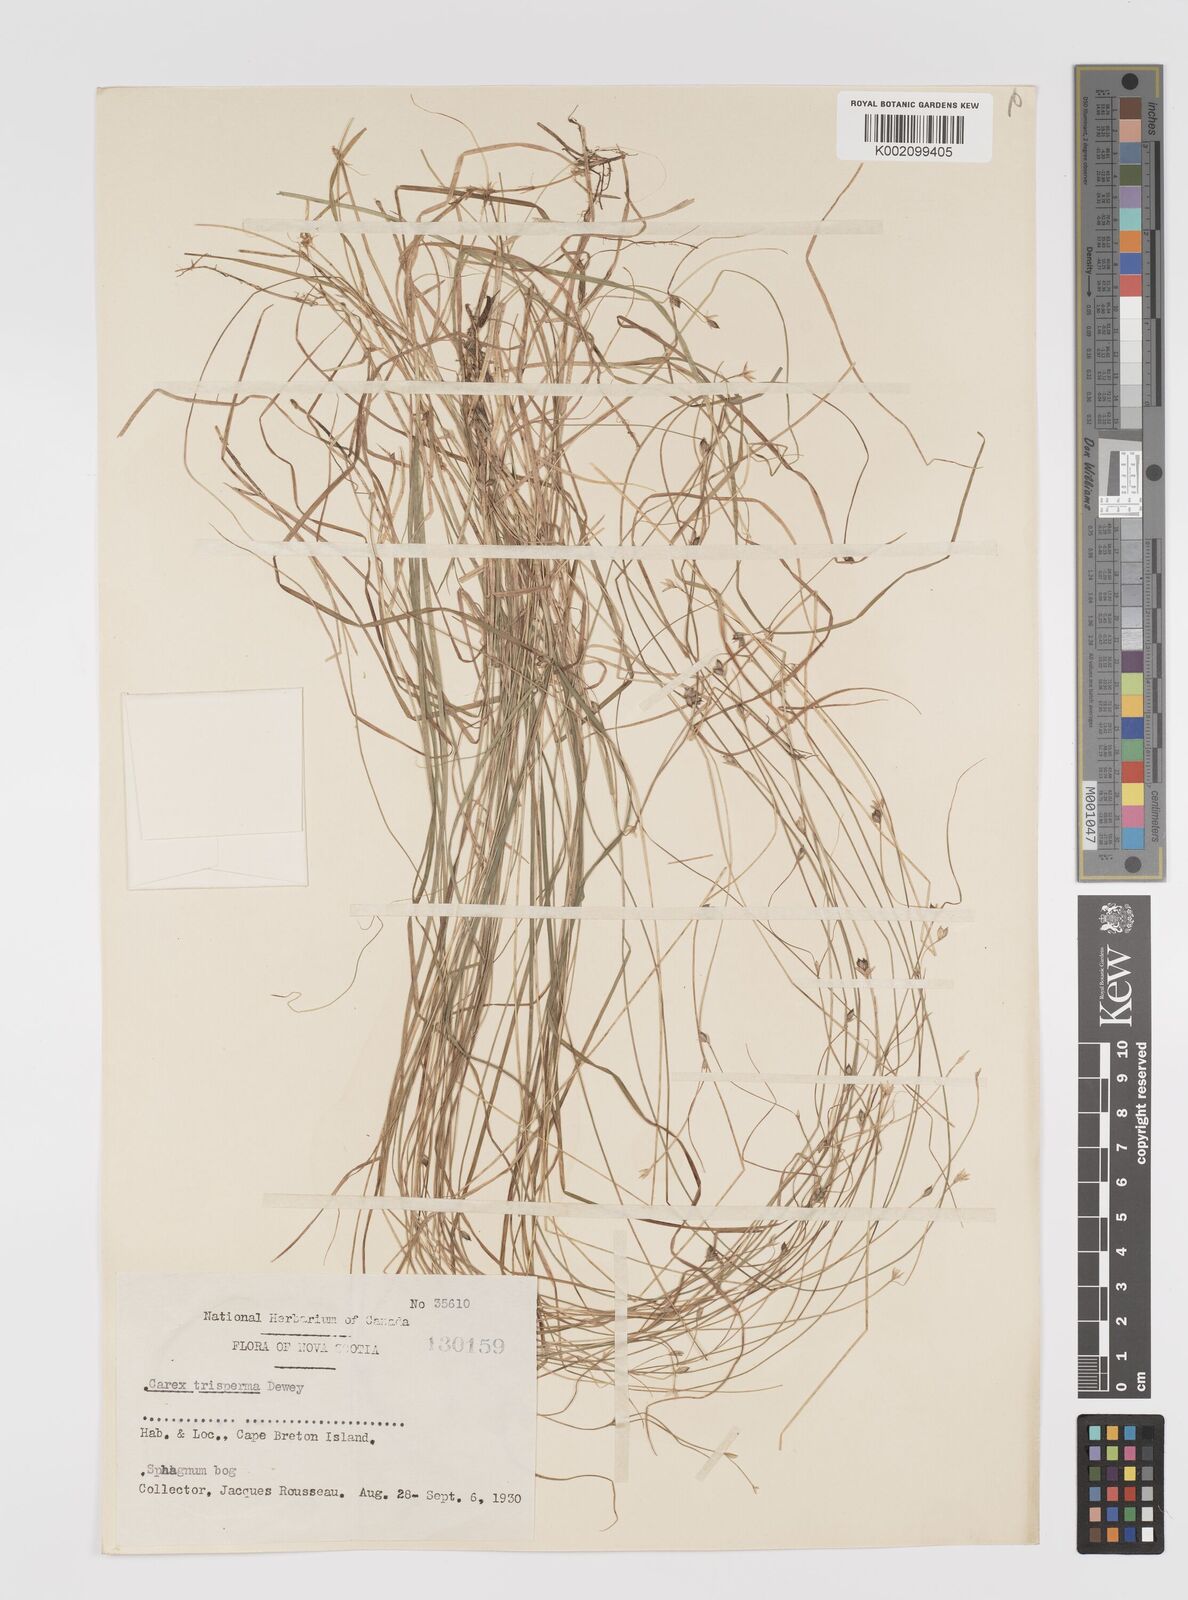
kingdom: Plantae
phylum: Tracheophyta
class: Liliopsida
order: Poales
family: Cyperaceae
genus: Carex
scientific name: Carex trisperma
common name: Three-seeded sedge
